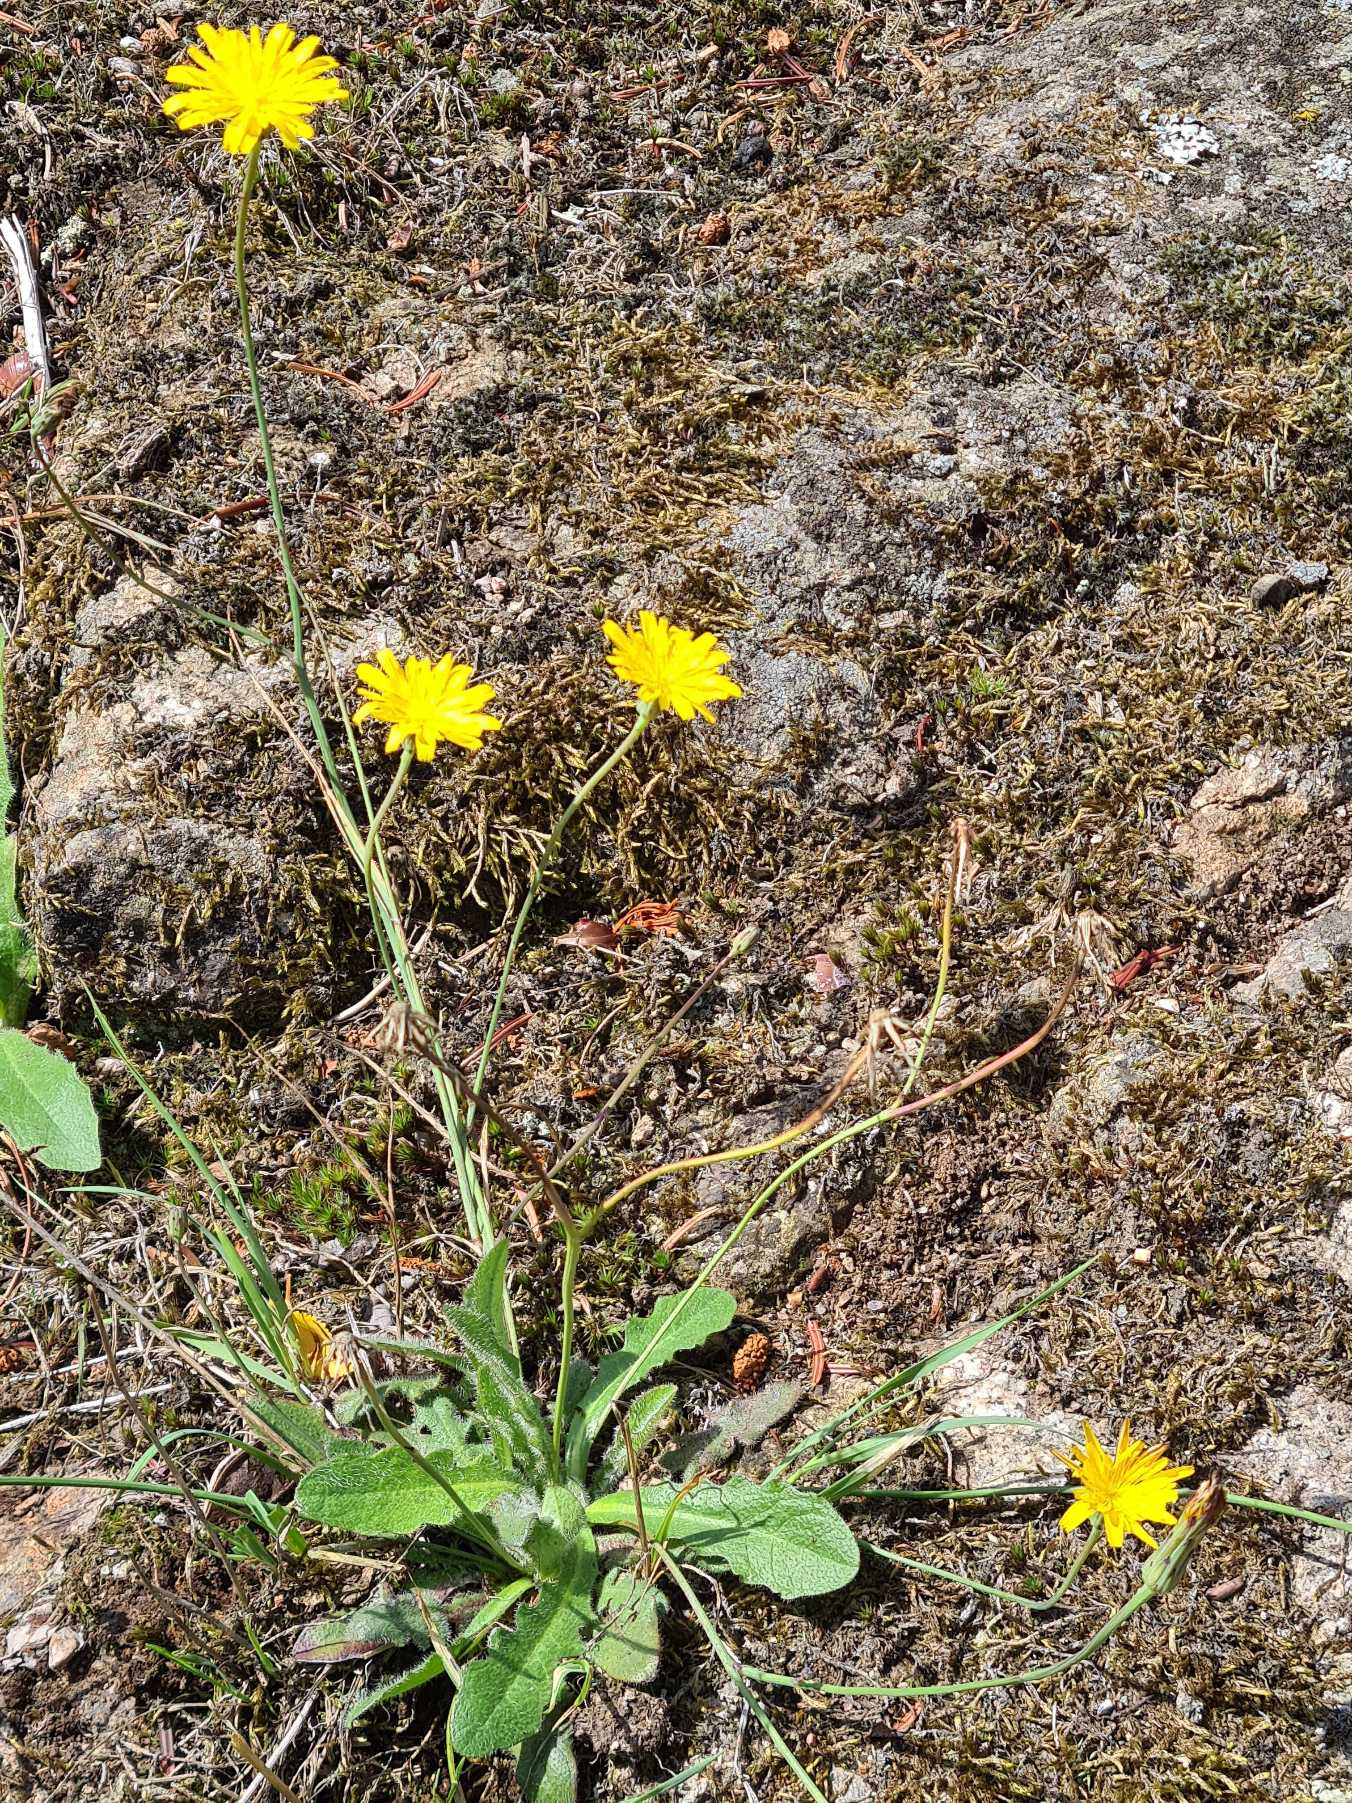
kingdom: Plantae
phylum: Tracheophyta
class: Magnoliopsida
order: Asterales
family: Asteraceae
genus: Hypochaeris
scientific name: Hypochaeris radicata
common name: Almindelig kongepen
